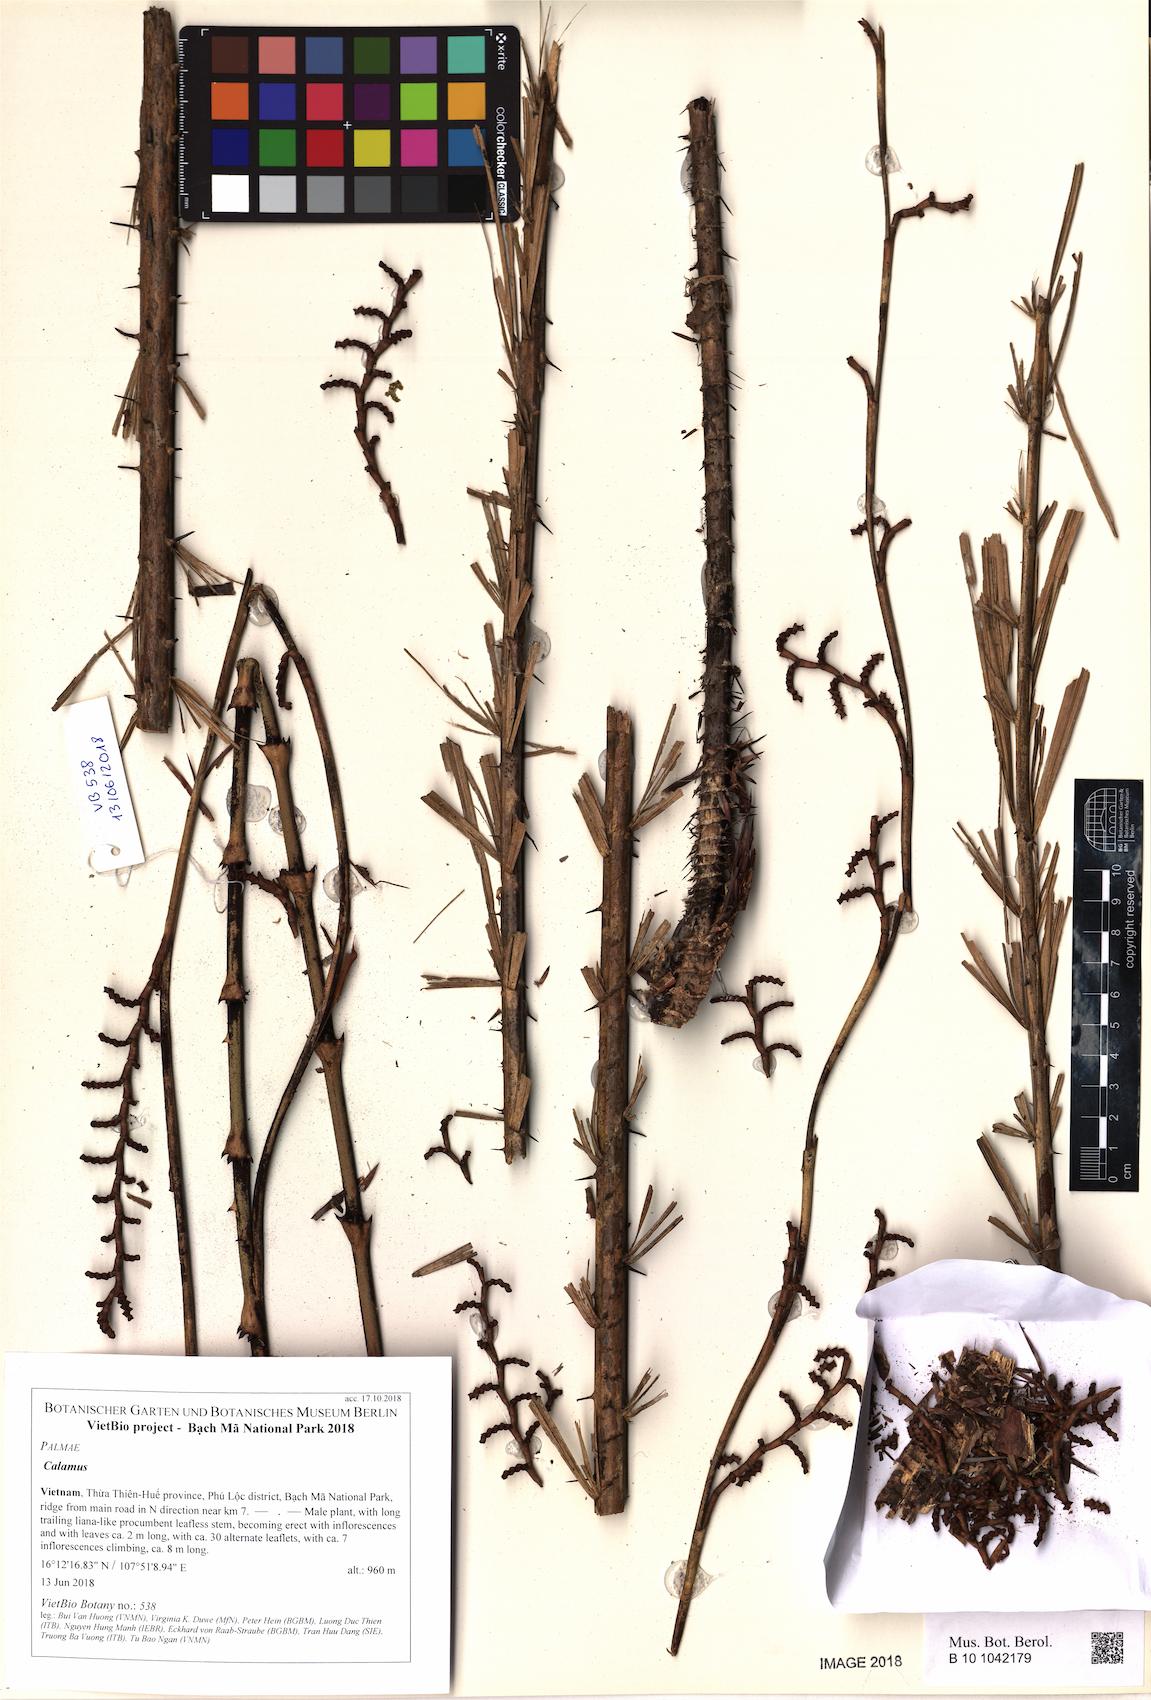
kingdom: Plantae
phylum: Tracheophyta
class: Liliopsida
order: Arecales
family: Arecaceae
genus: Calamus
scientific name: Calamus
